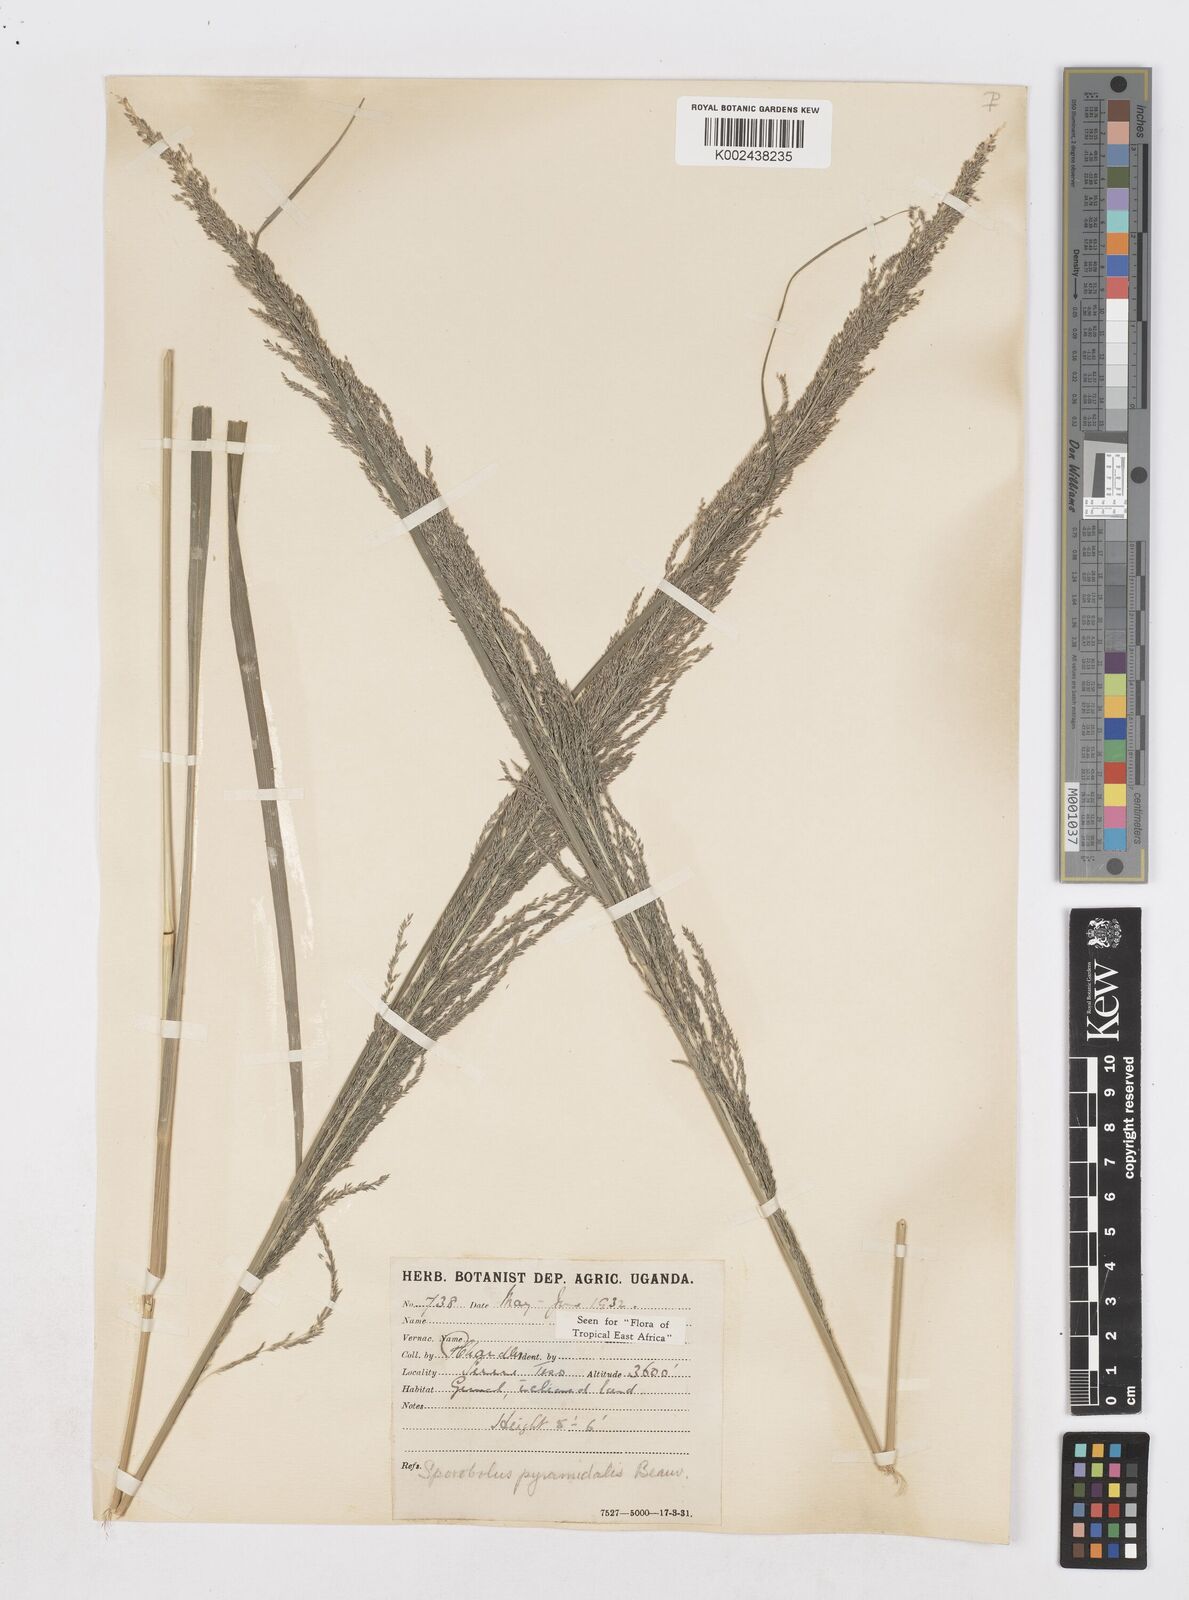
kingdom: Plantae
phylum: Tracheophyta
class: Liliopsida
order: Poales
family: Poaceae
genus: Sporobolus
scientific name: Sporobolus pyramidalis
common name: West indian dropseed
